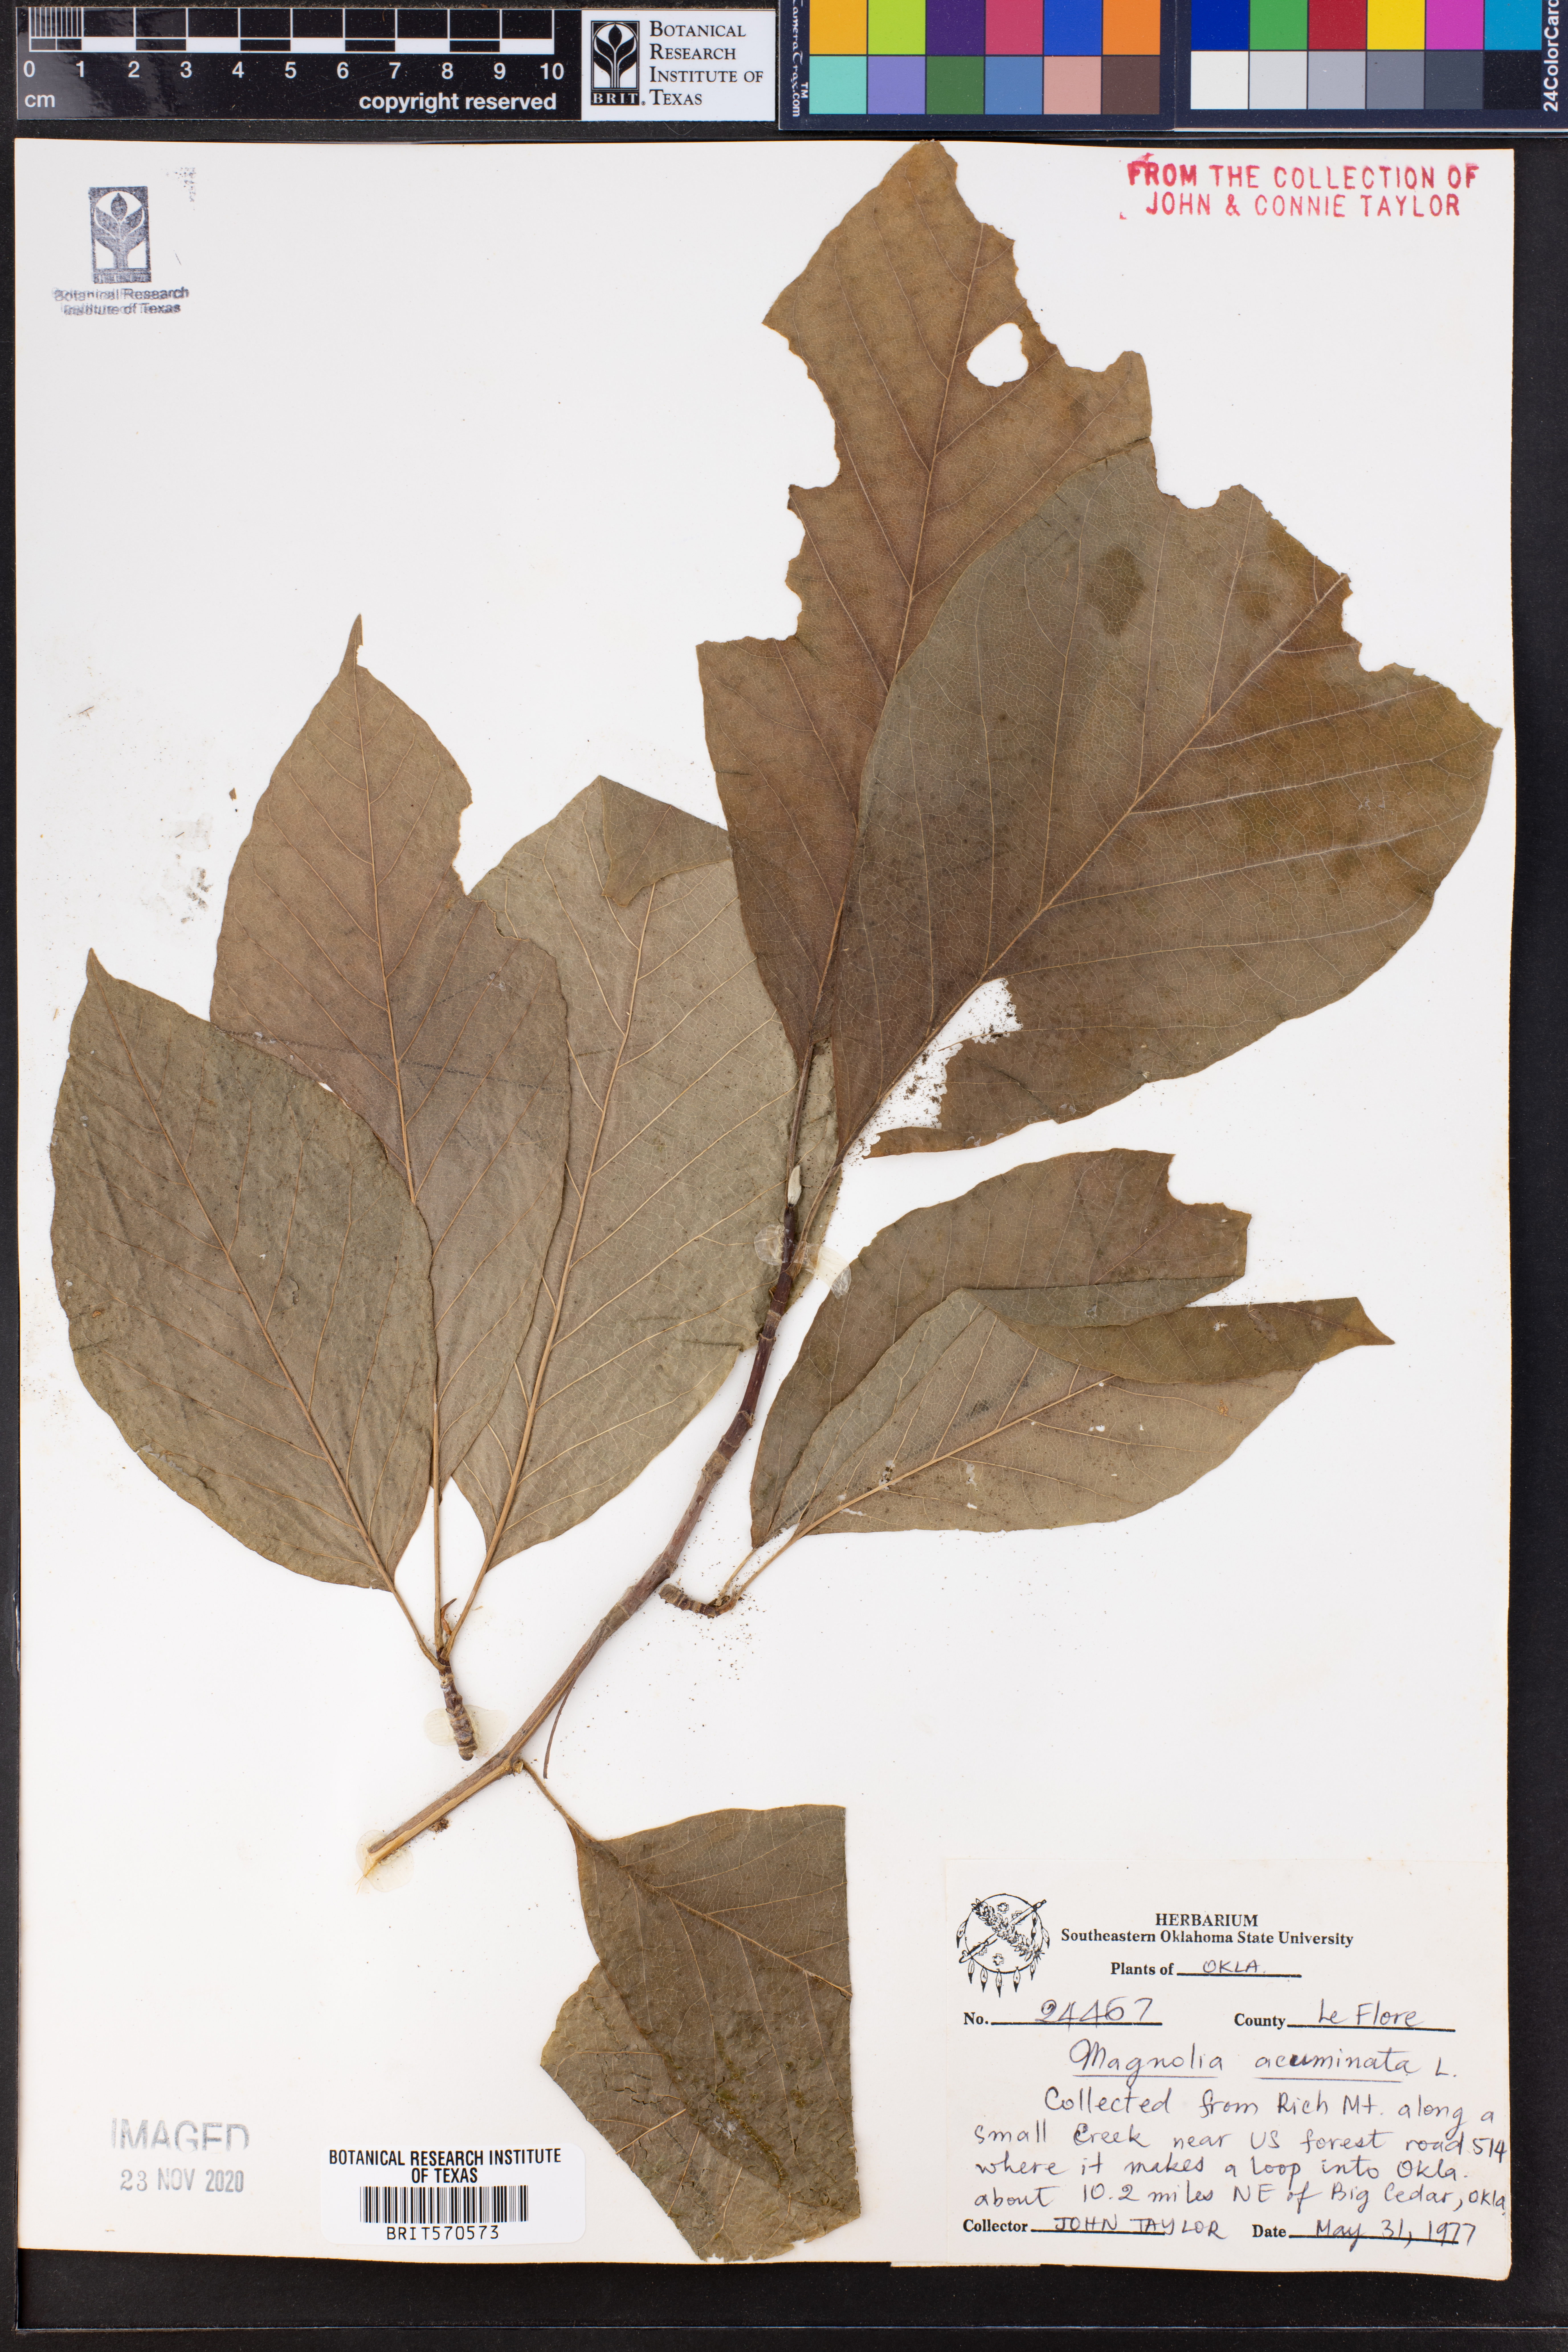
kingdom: Plantae
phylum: Tracheophyta
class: Magnoliopsida
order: Magnoliales
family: Magnoliaceae
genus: Magnolia
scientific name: Magnolia acuminata
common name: Cucumber magnolia
